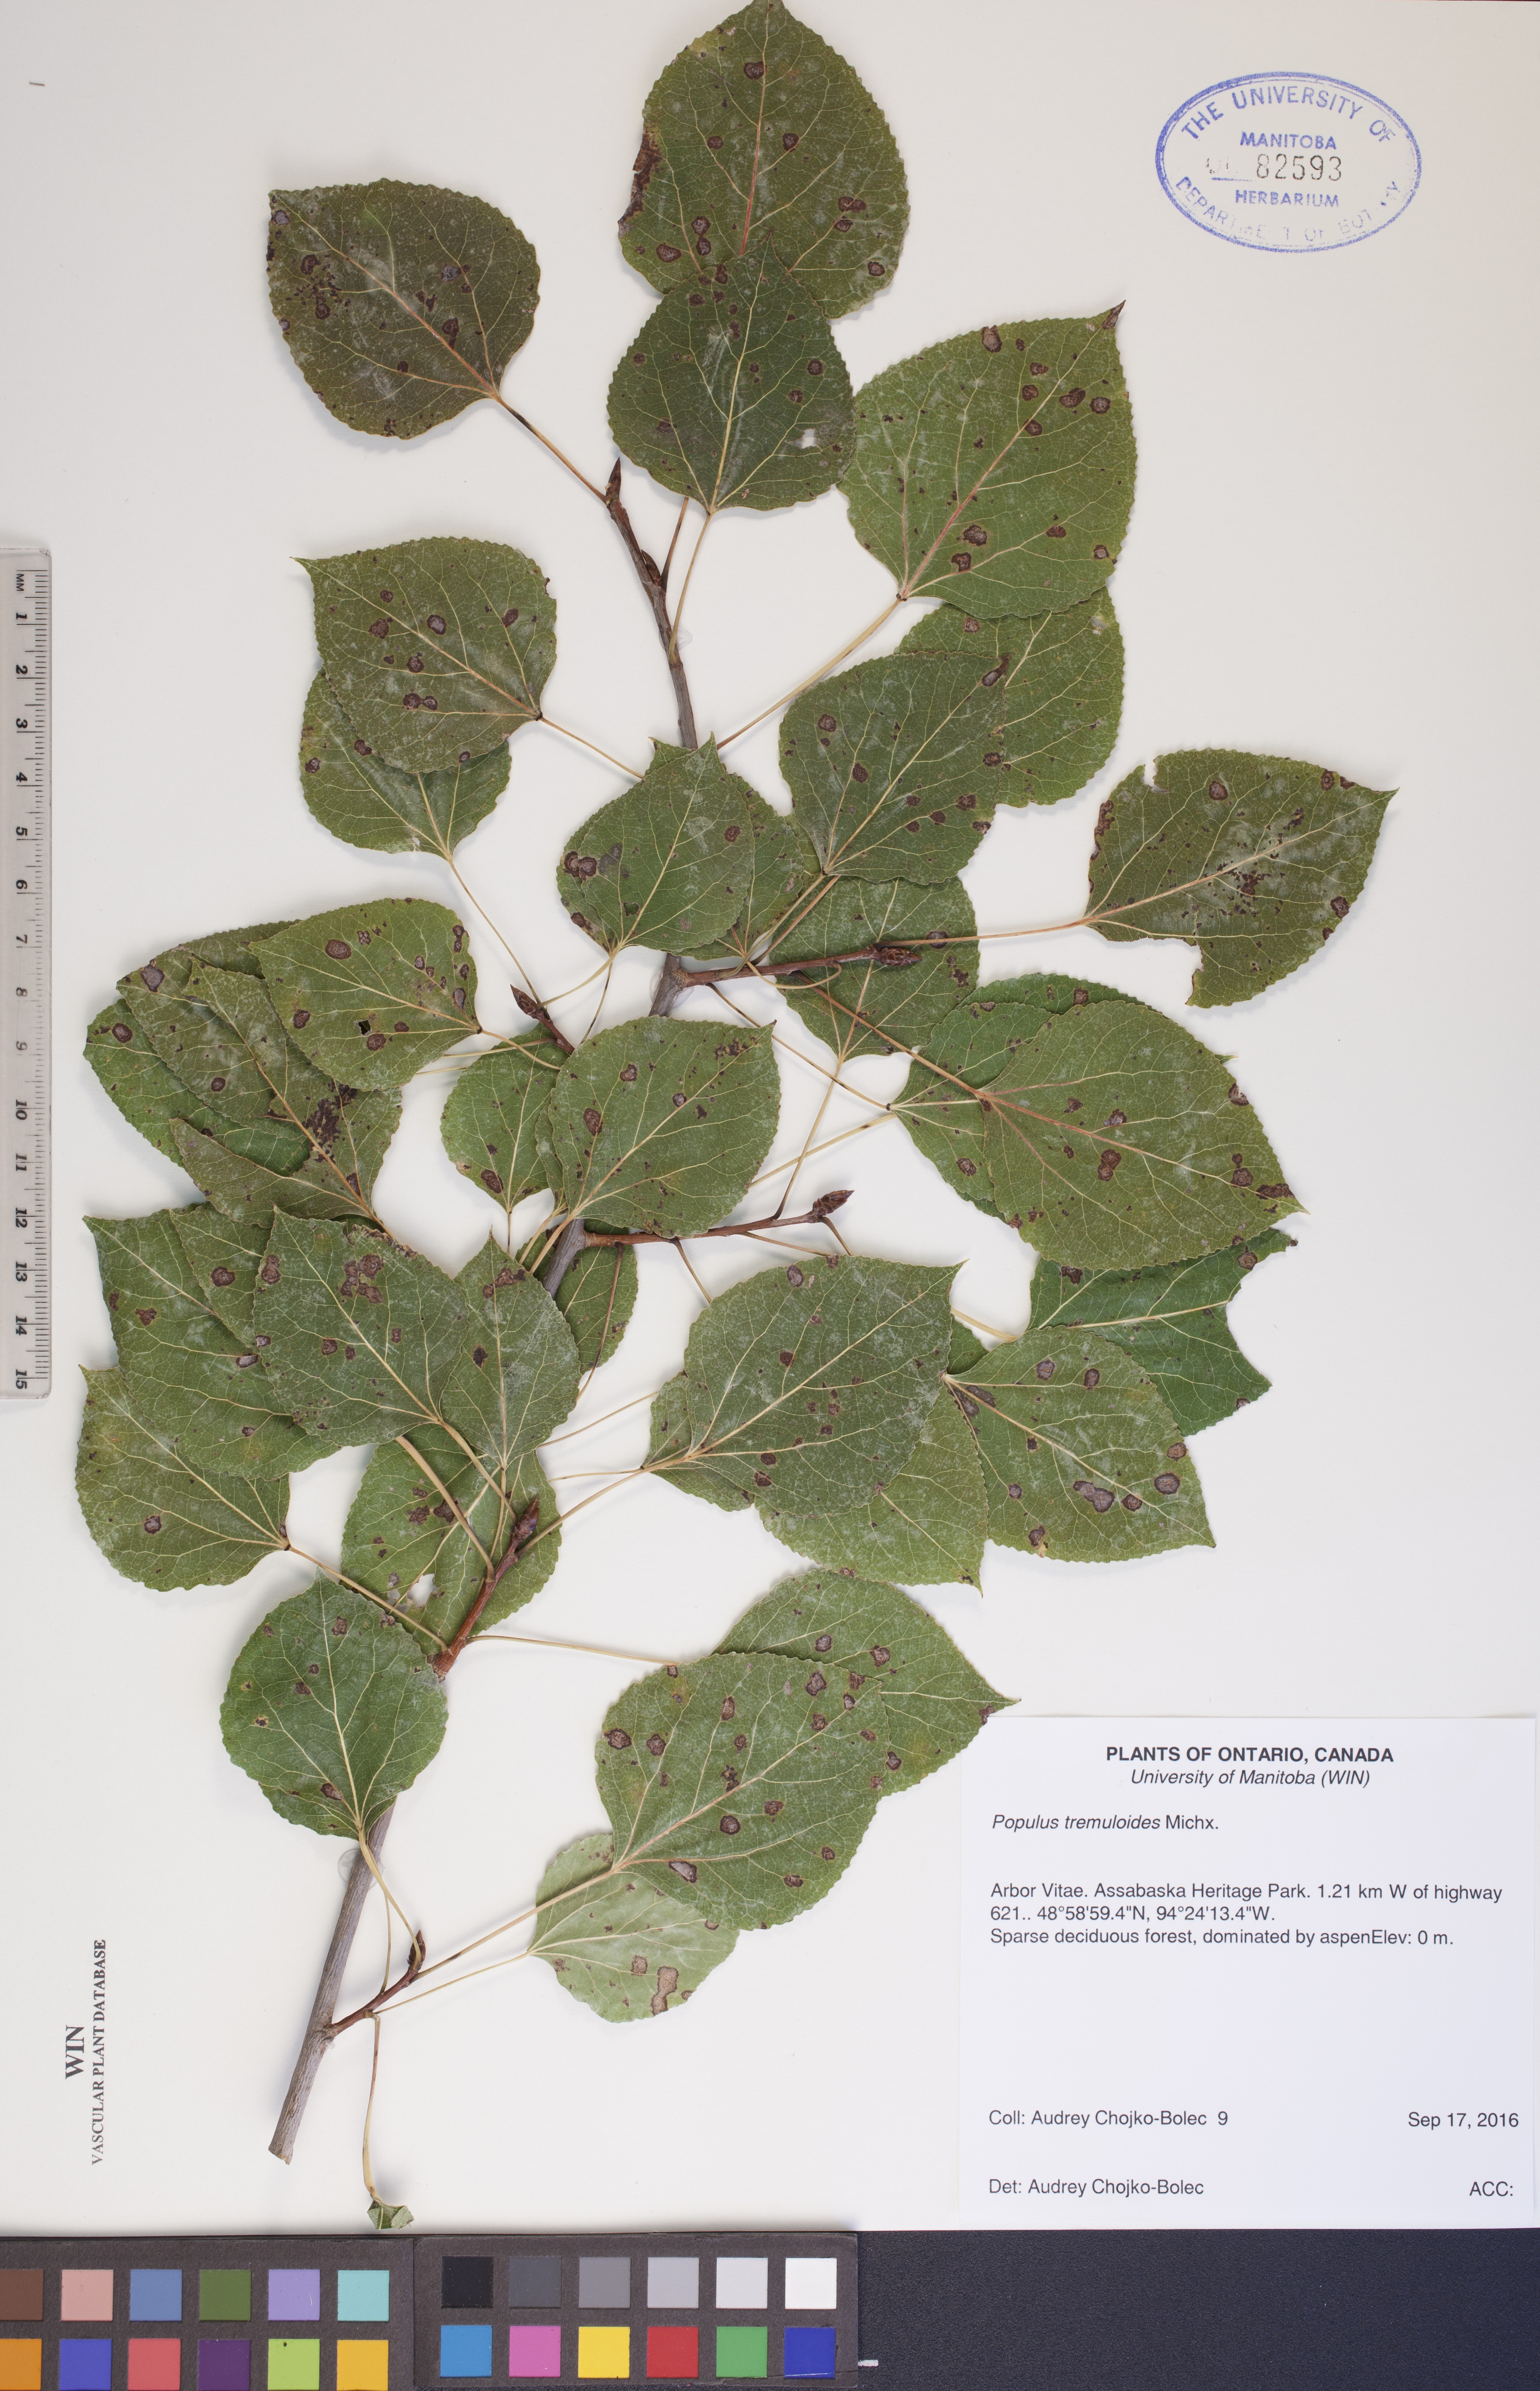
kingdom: Plantae
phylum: Tracheophyta
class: Magnoliopsida
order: Malpighiales
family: Salicaceae
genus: Populus
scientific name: Populus tremuloides
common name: Quaking aspen
